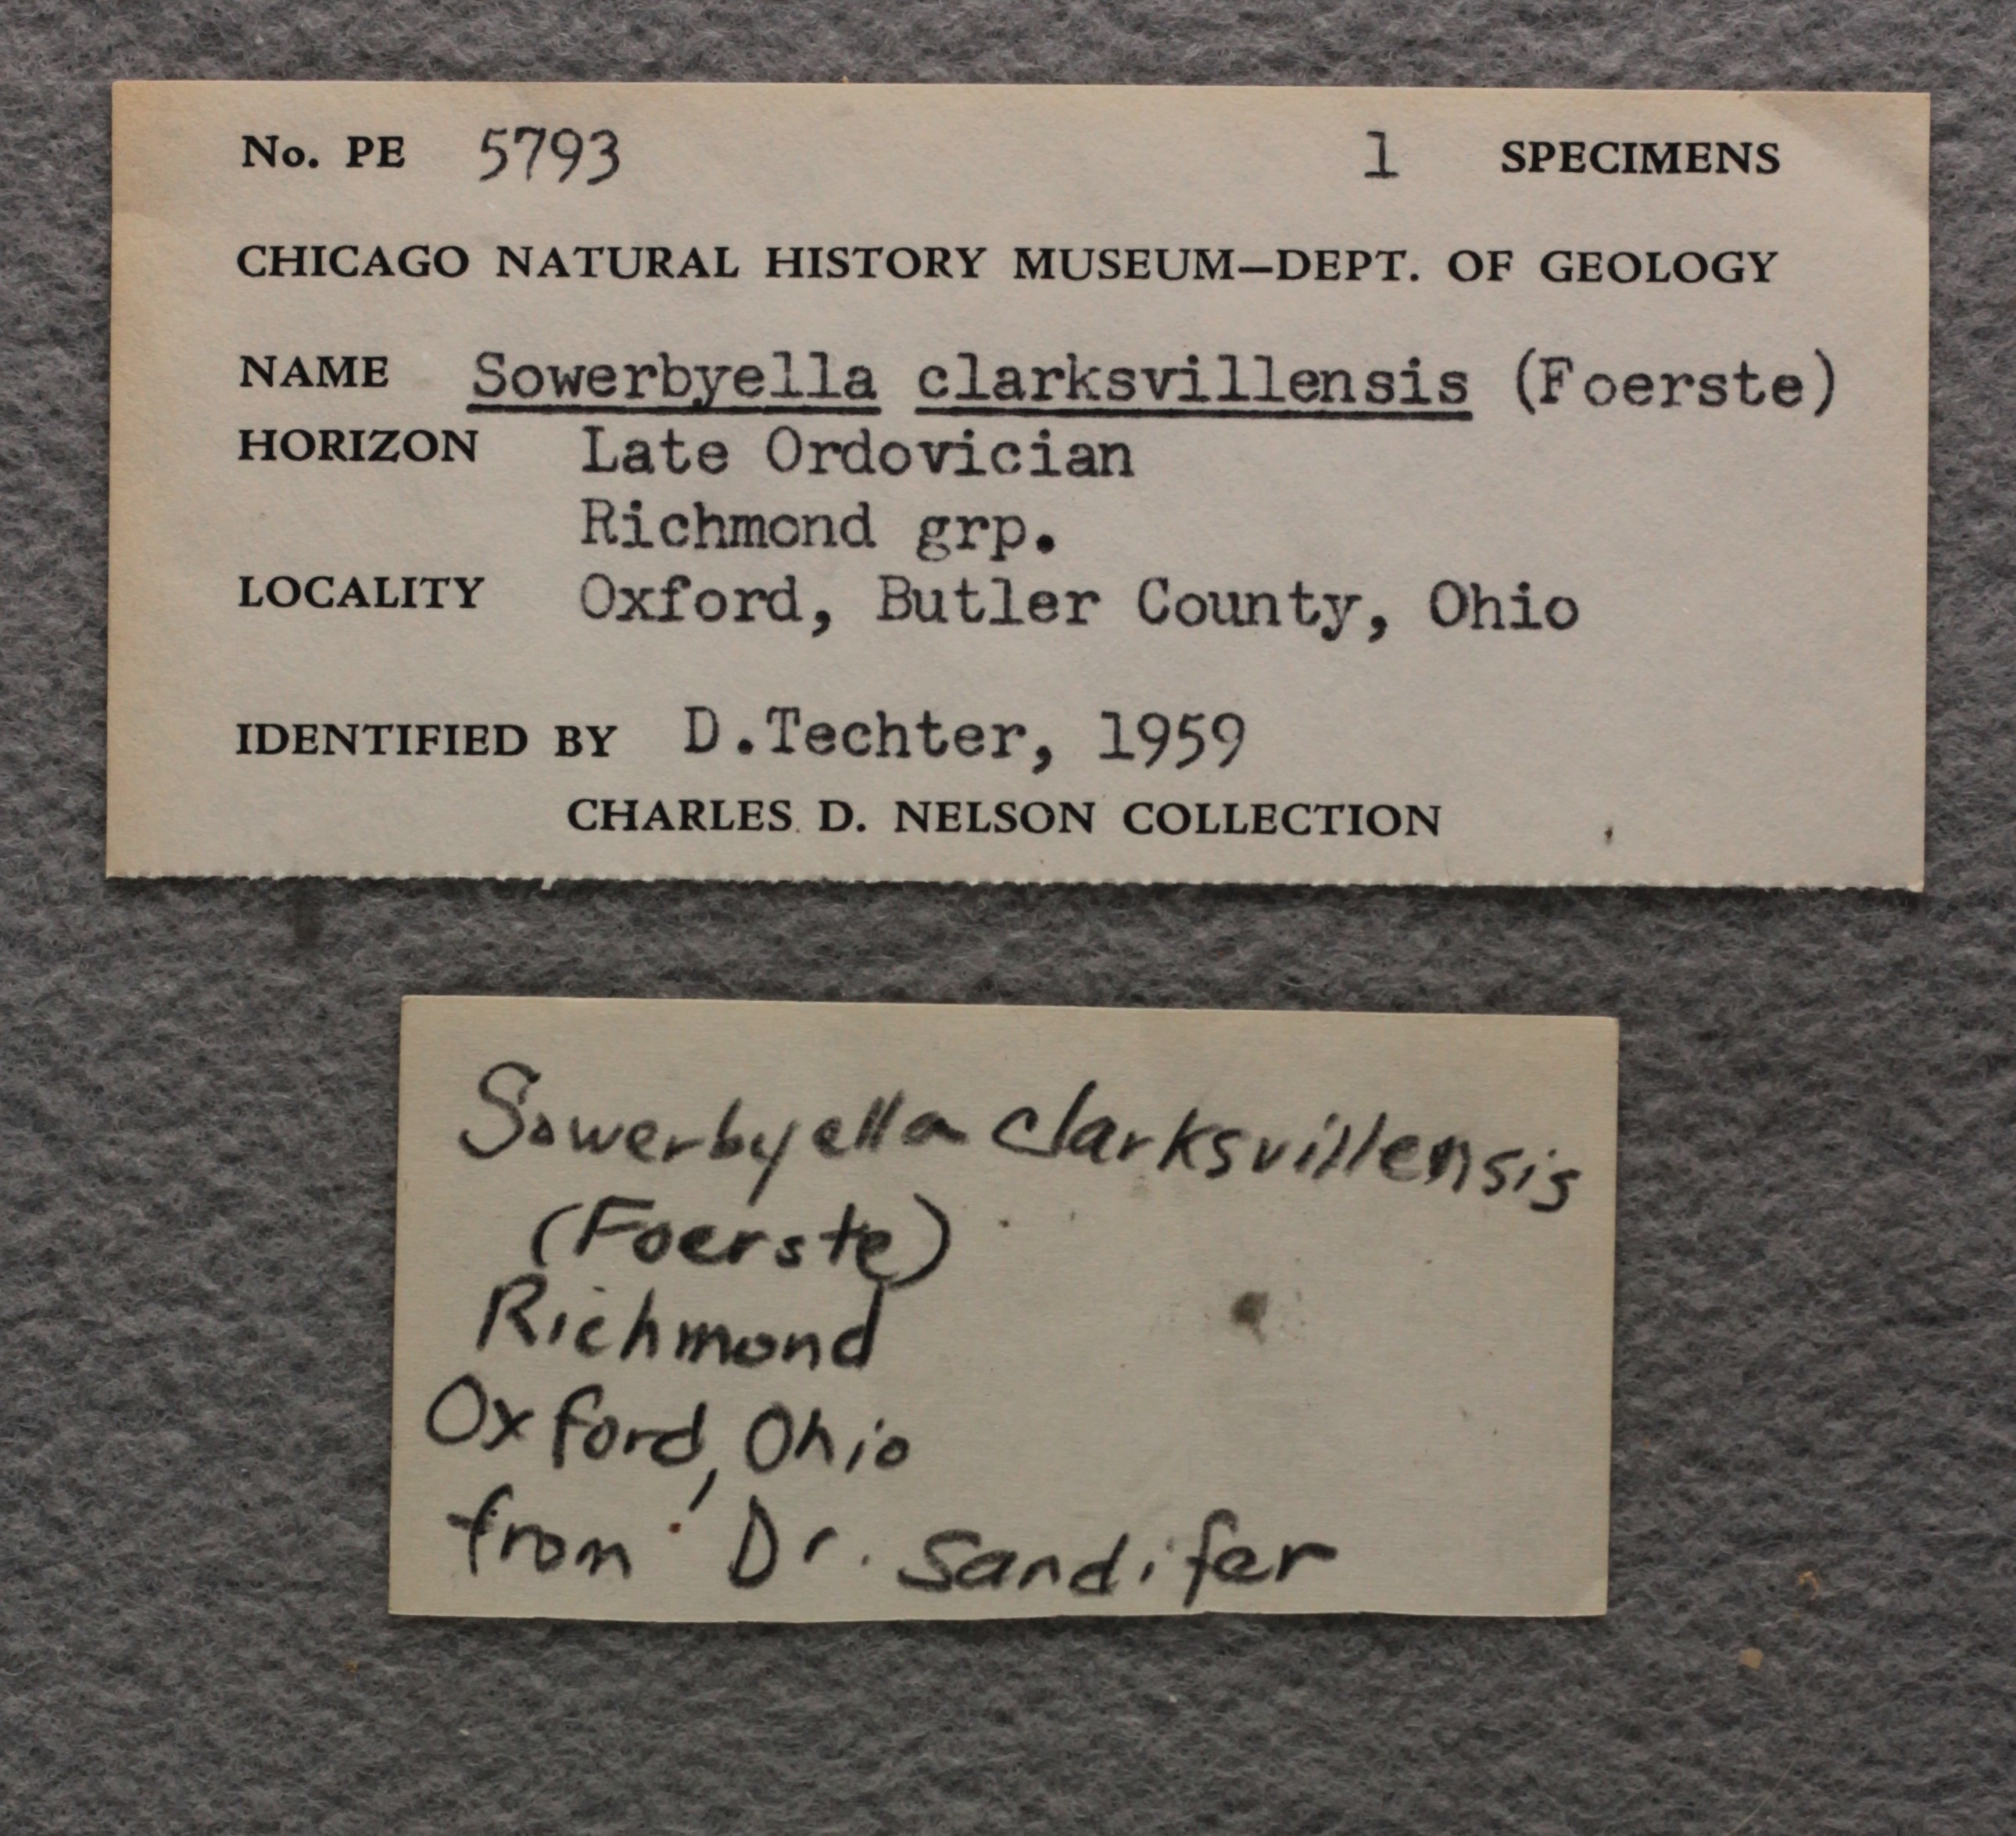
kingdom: Animalia
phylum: Brachiopoda
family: Sowerbyellidae
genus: Eochonetes
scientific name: Eochonetes Plectambonites rugosa
